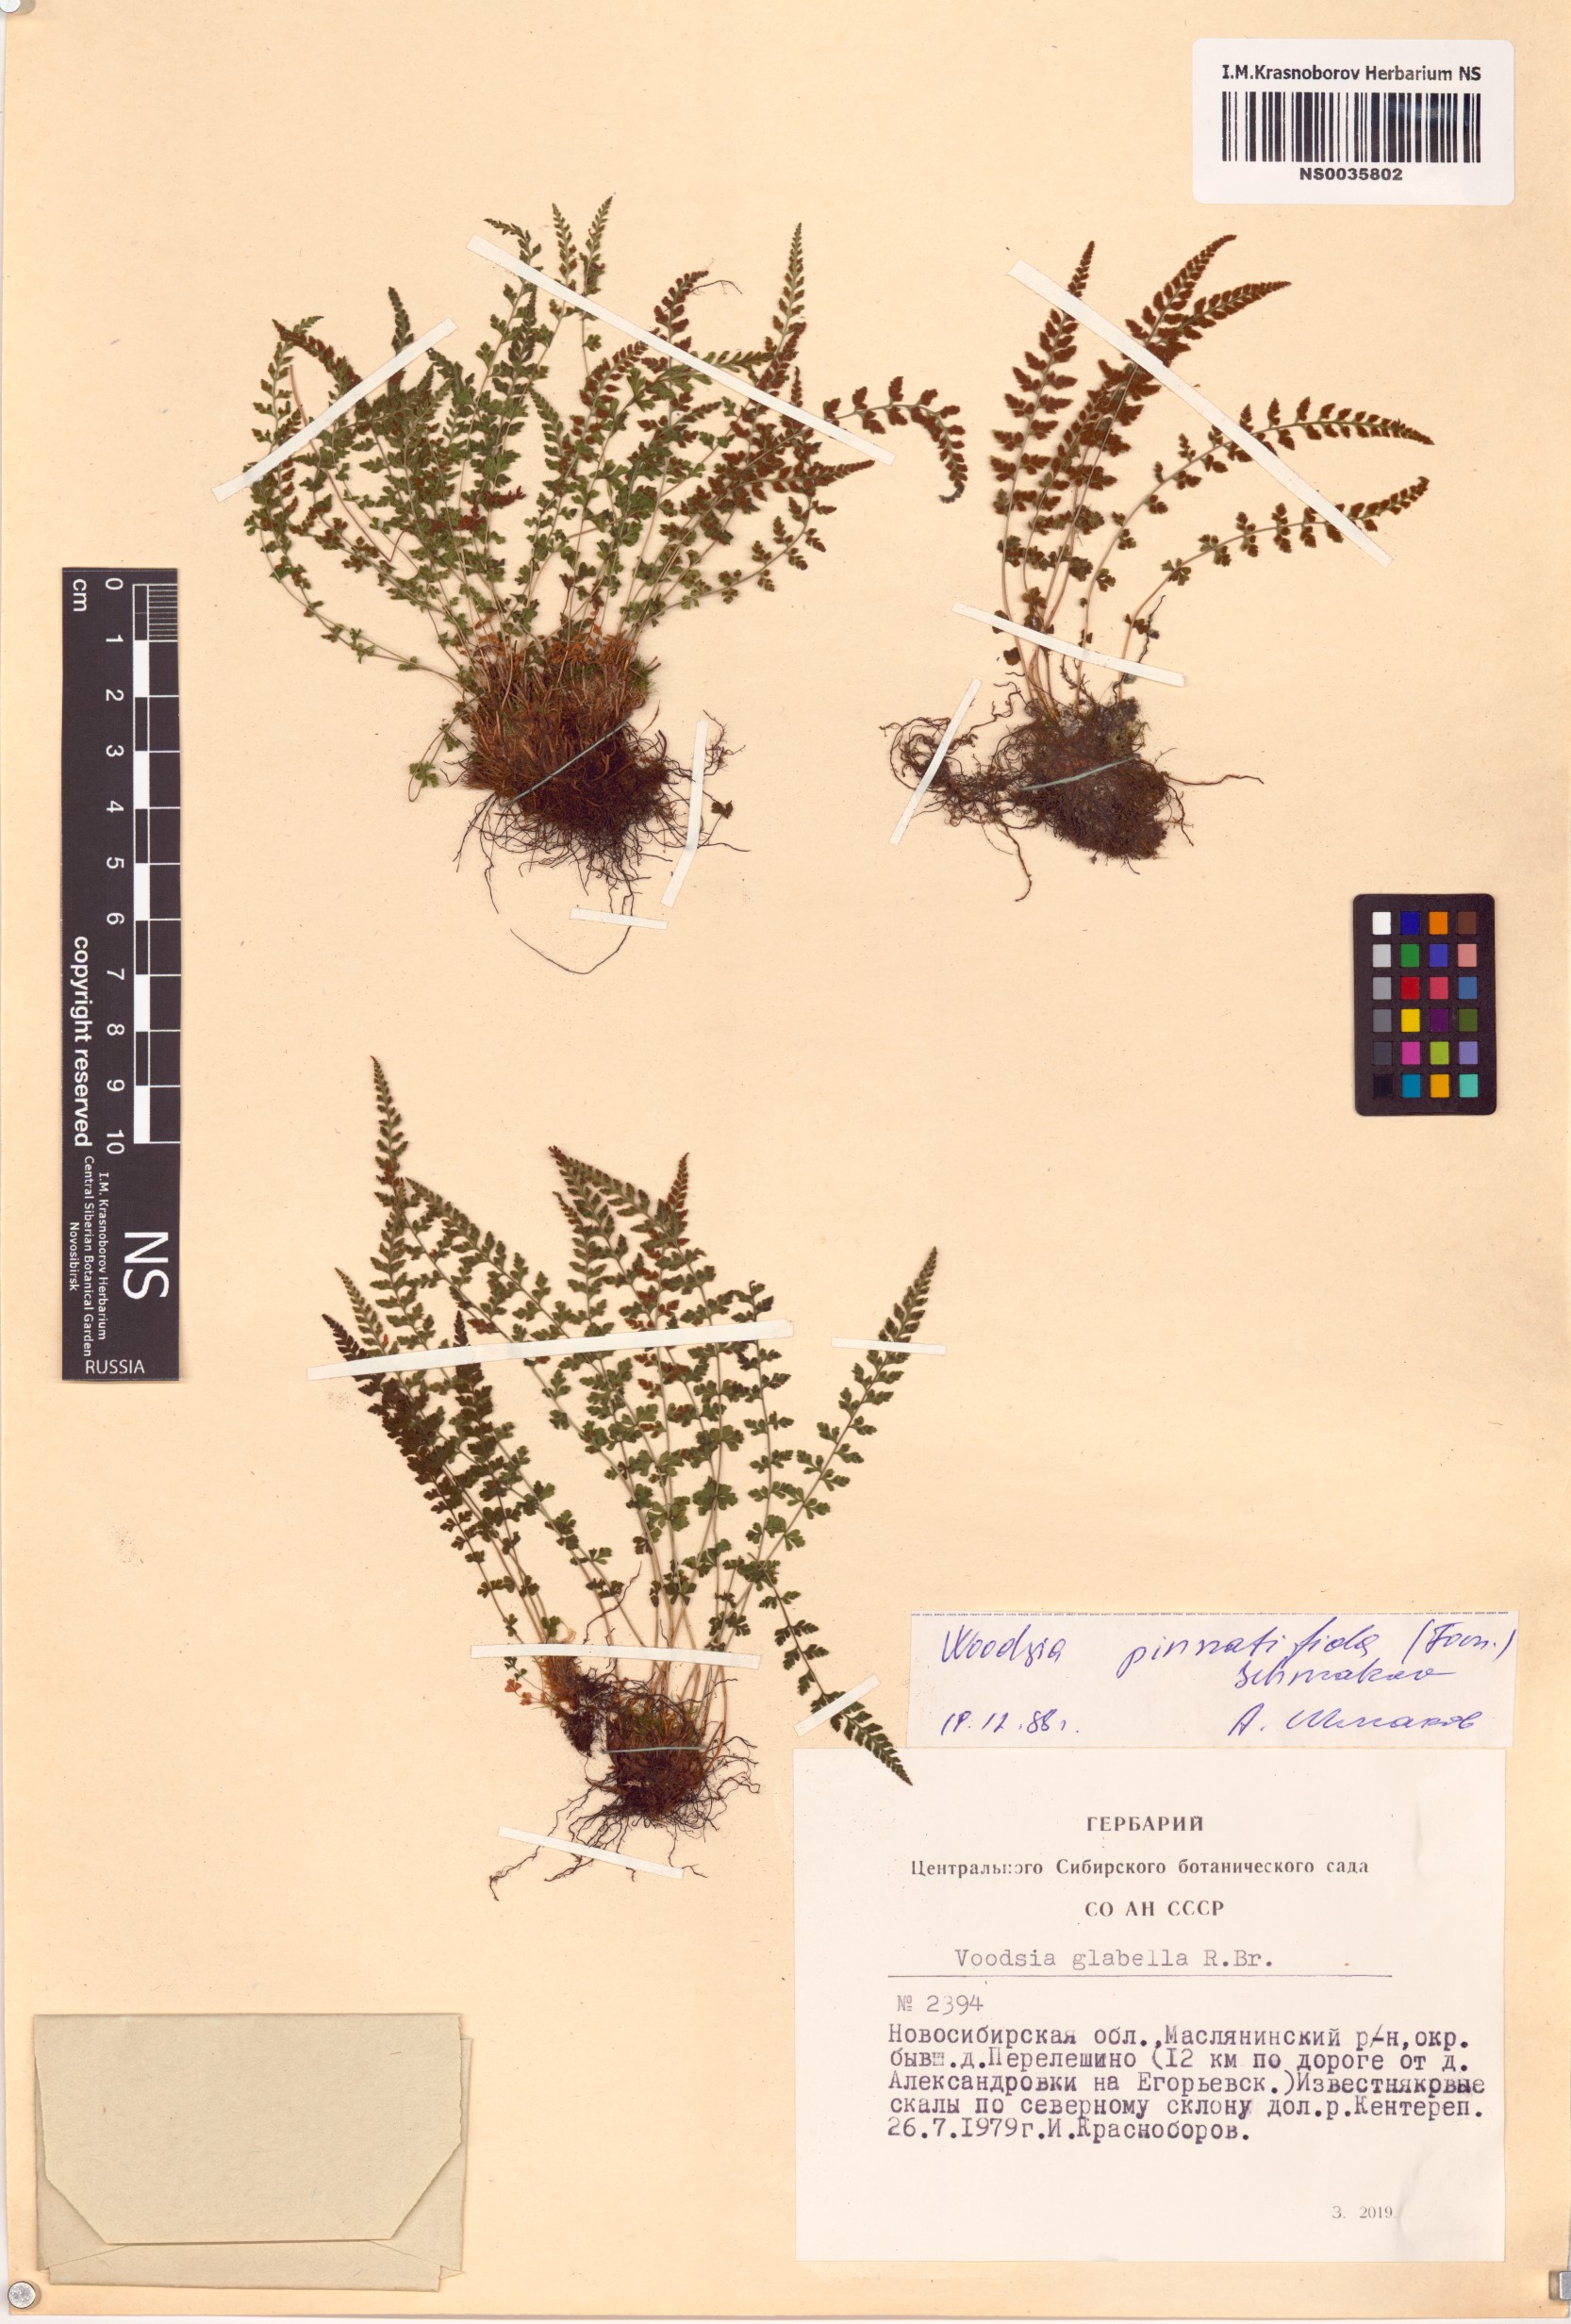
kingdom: Plantae
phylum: Tracheophyta
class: Polypodiopsida
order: Polypodiales
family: Woodsiaceae
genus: Woodsia
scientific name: Woodsia pulchella
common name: Graceful woodsia
